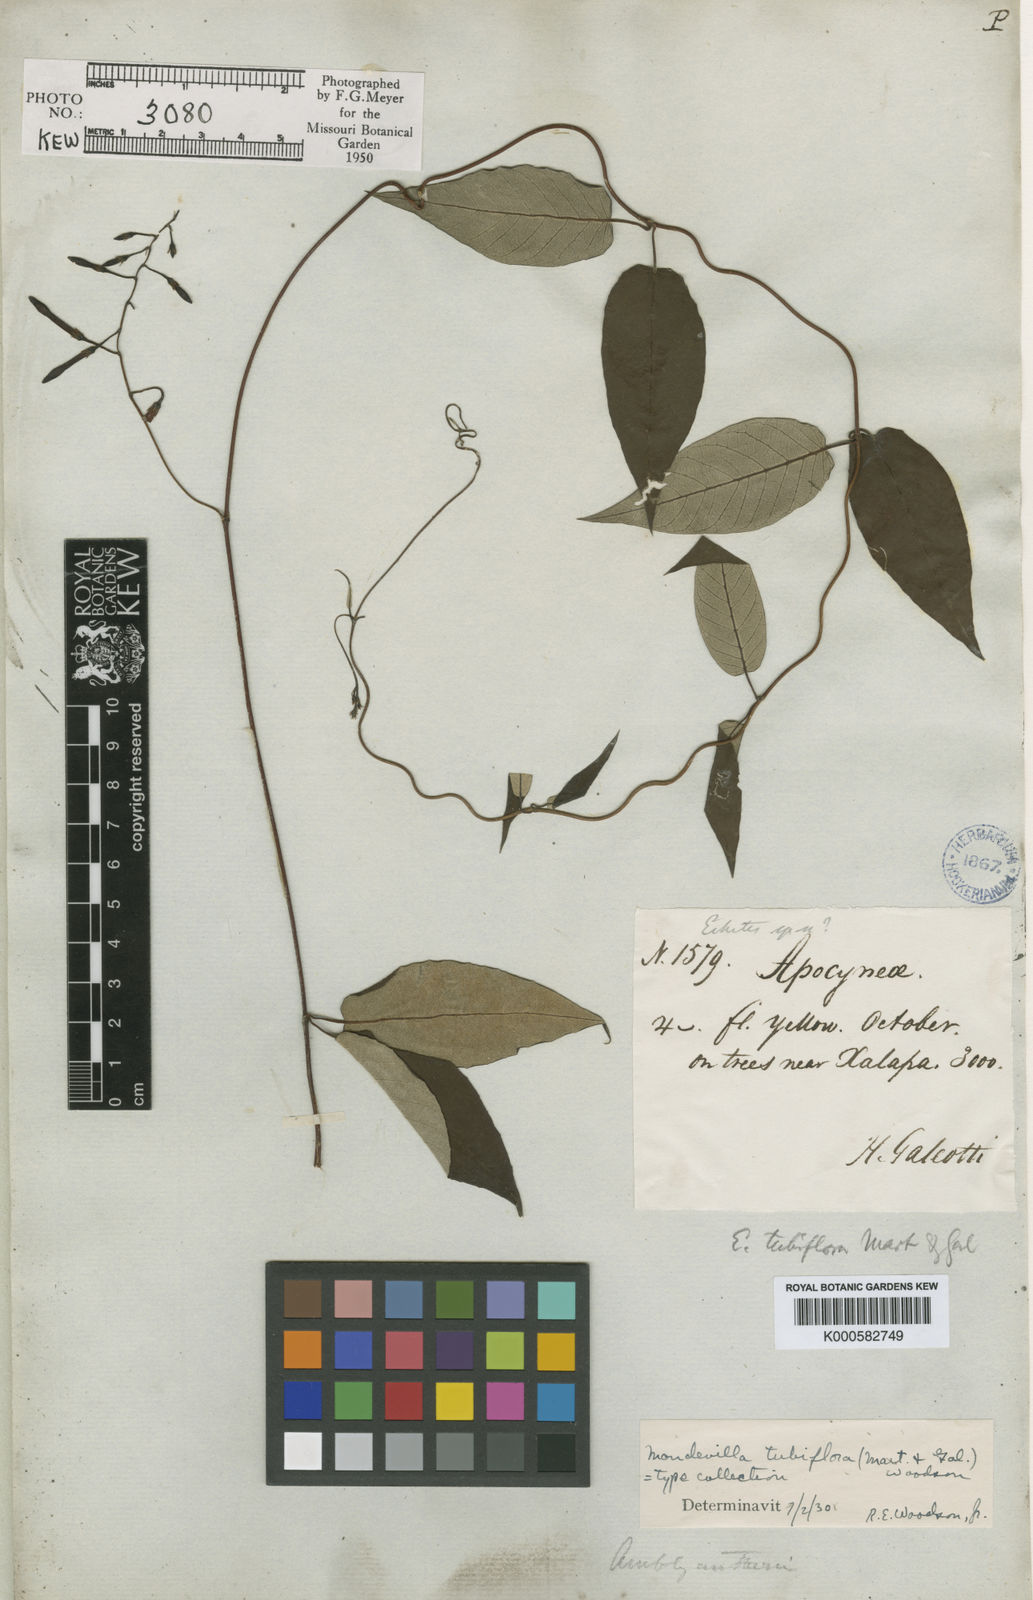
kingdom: Plantae
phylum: Tracheophyta
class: Magnoliopsida
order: Gentianales
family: Apocynaceae
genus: Mandevilla
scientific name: Mandevilla tubiflora
